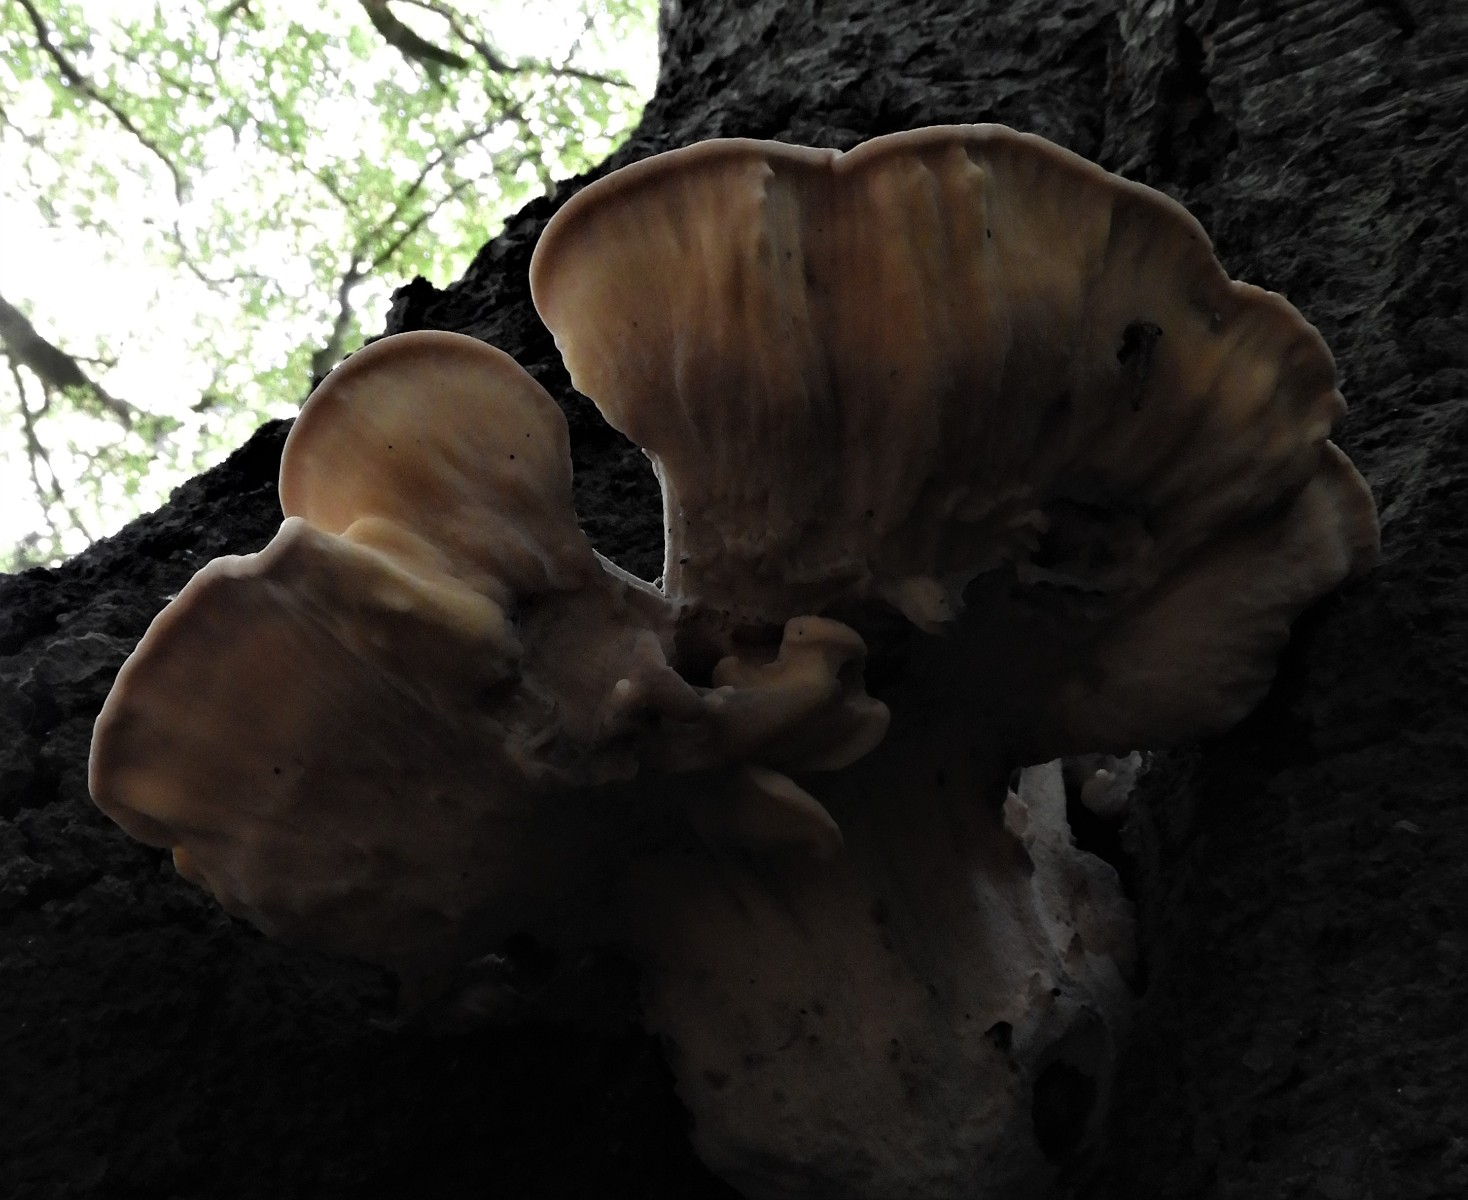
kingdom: Fungi
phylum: Basidiomycota
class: Agaricomycetes
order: Polyporales
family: Meripilaceae
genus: Meripilus
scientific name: Meripilus giganteus
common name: kæmpeporesvamp
